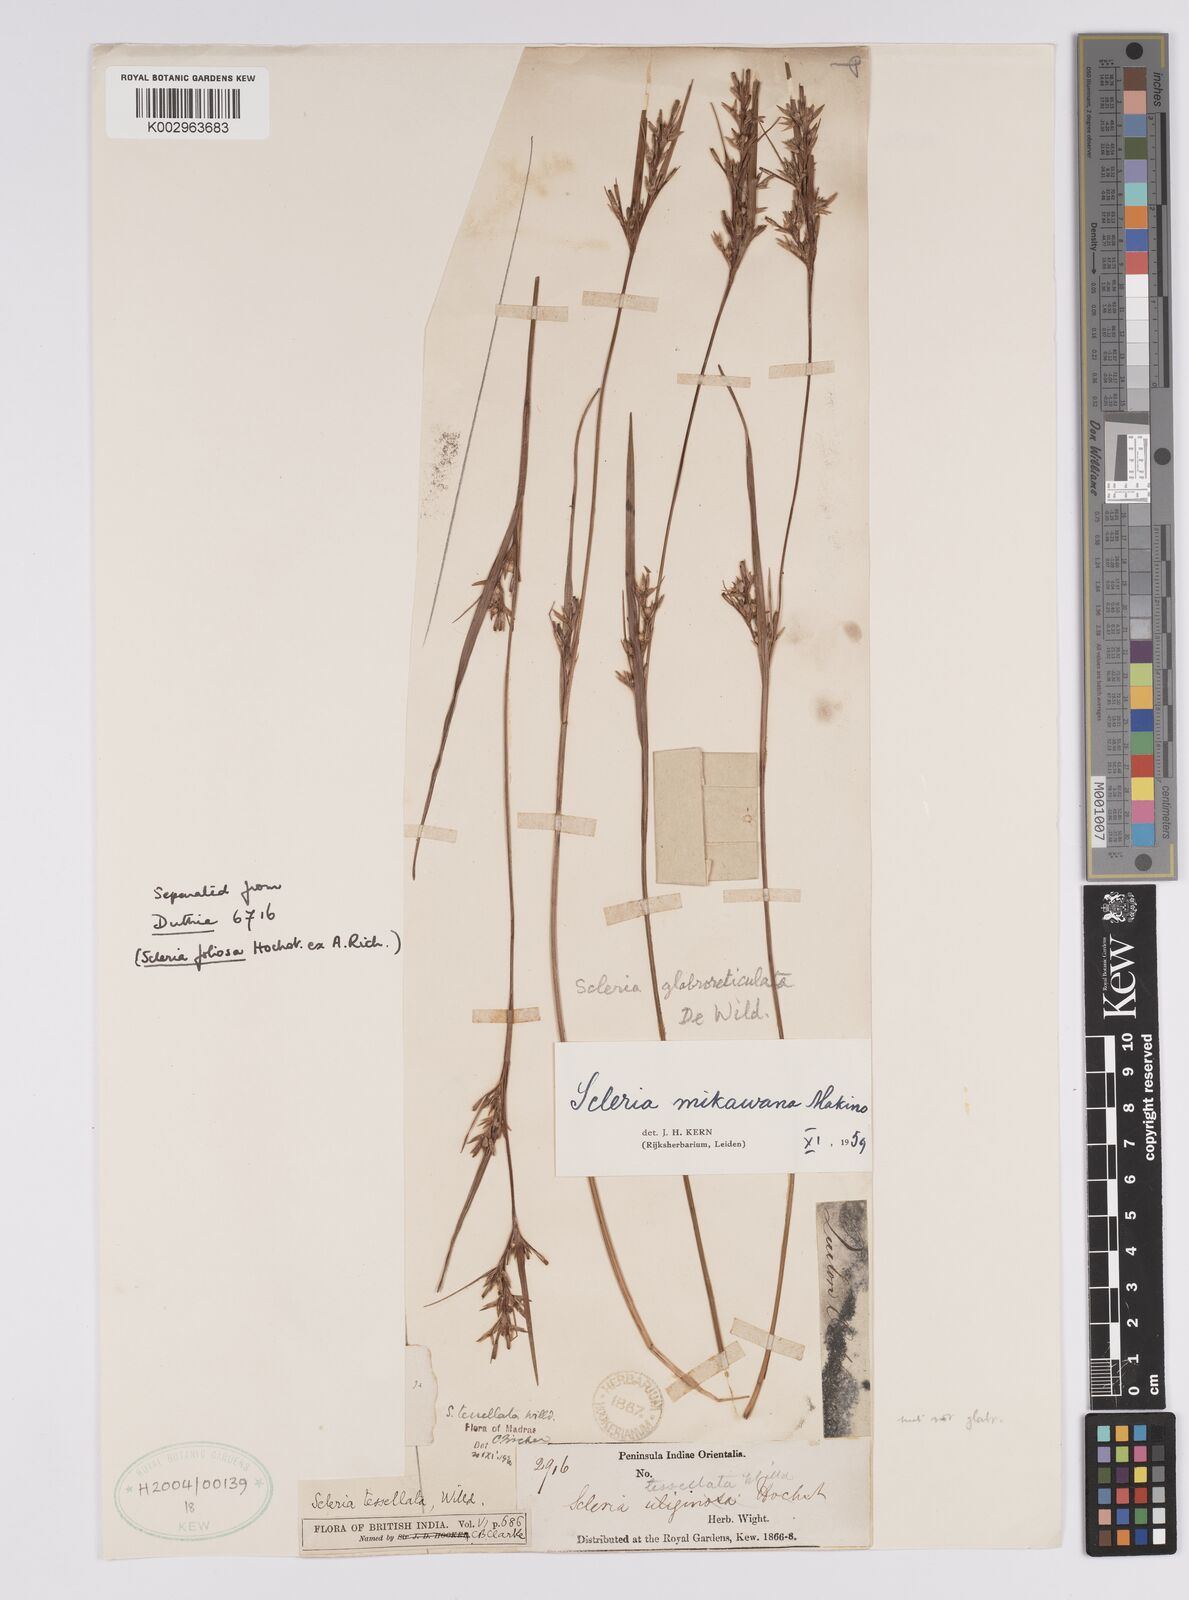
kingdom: Plantae
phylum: Tracheophyta
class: Liliopsida
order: Poales
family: Cyperaceae
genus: Scleria
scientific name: Scleria mikawana
